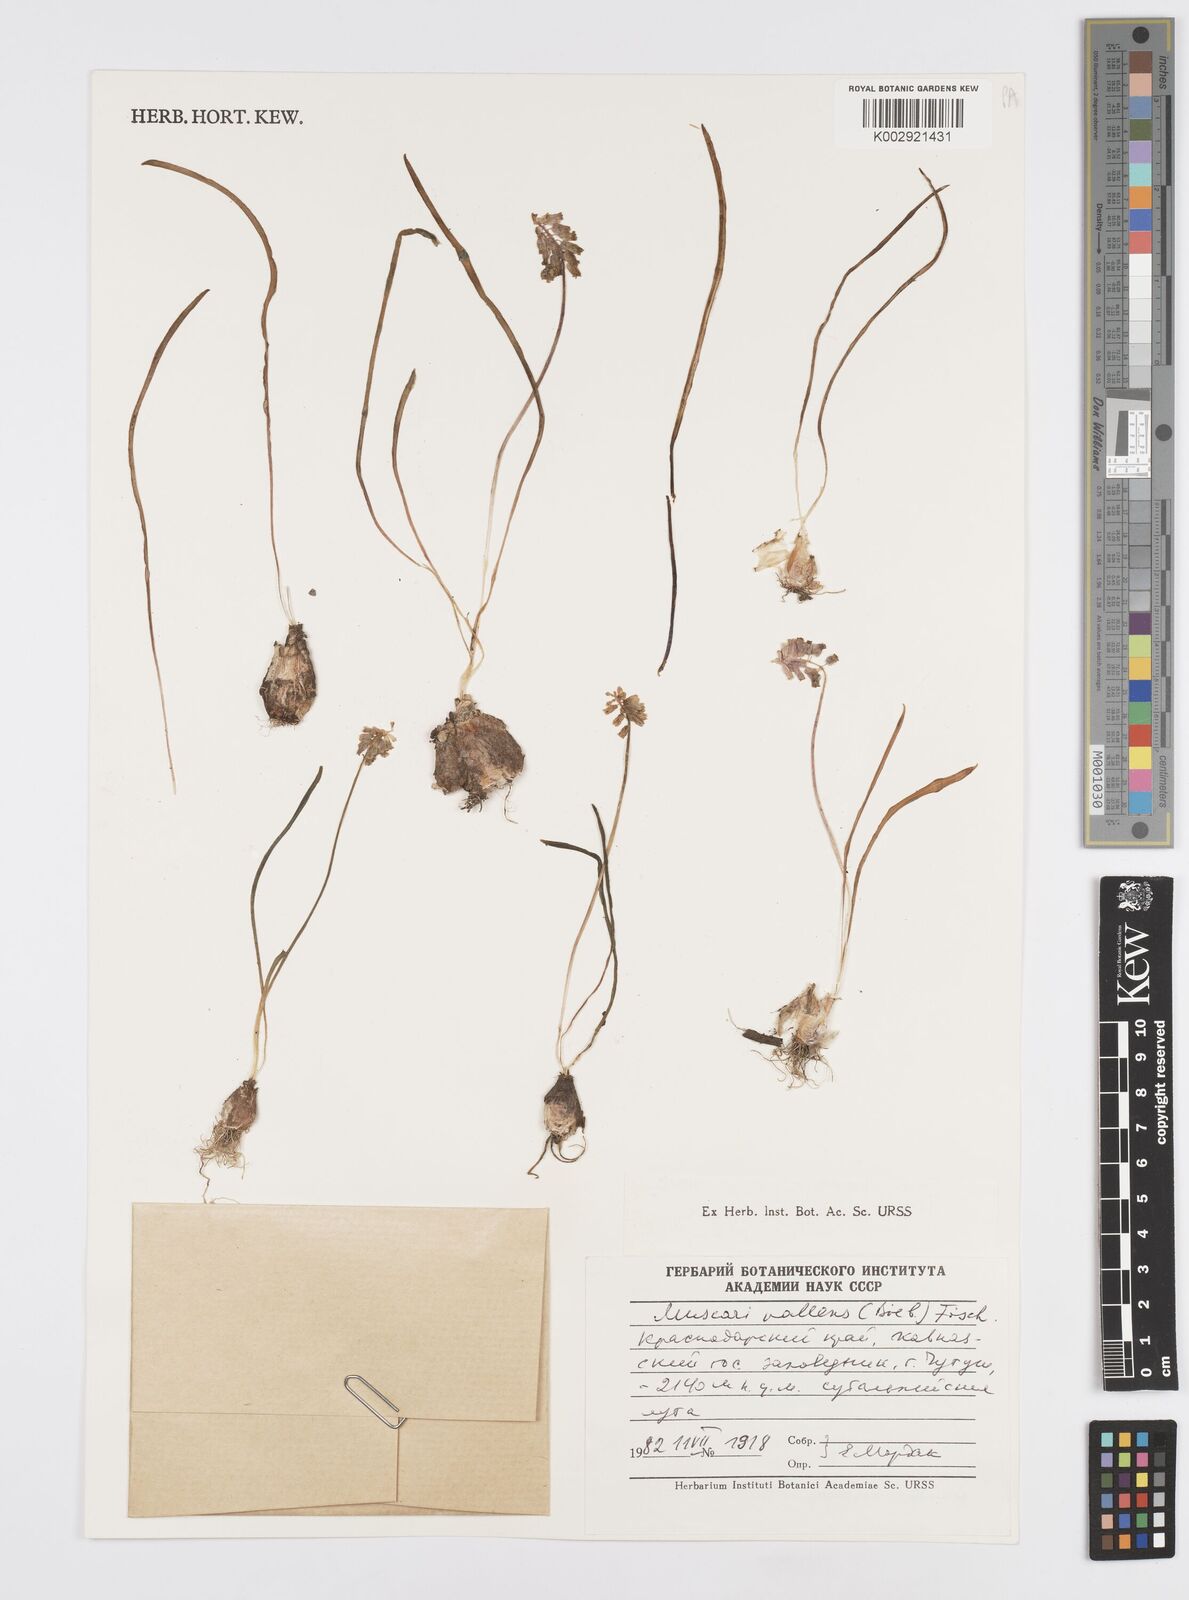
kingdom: Plantae
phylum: Tracheophyta
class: Liliopsida
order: Asparagales
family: Asparagaceae
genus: Muscari
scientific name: Muscari
